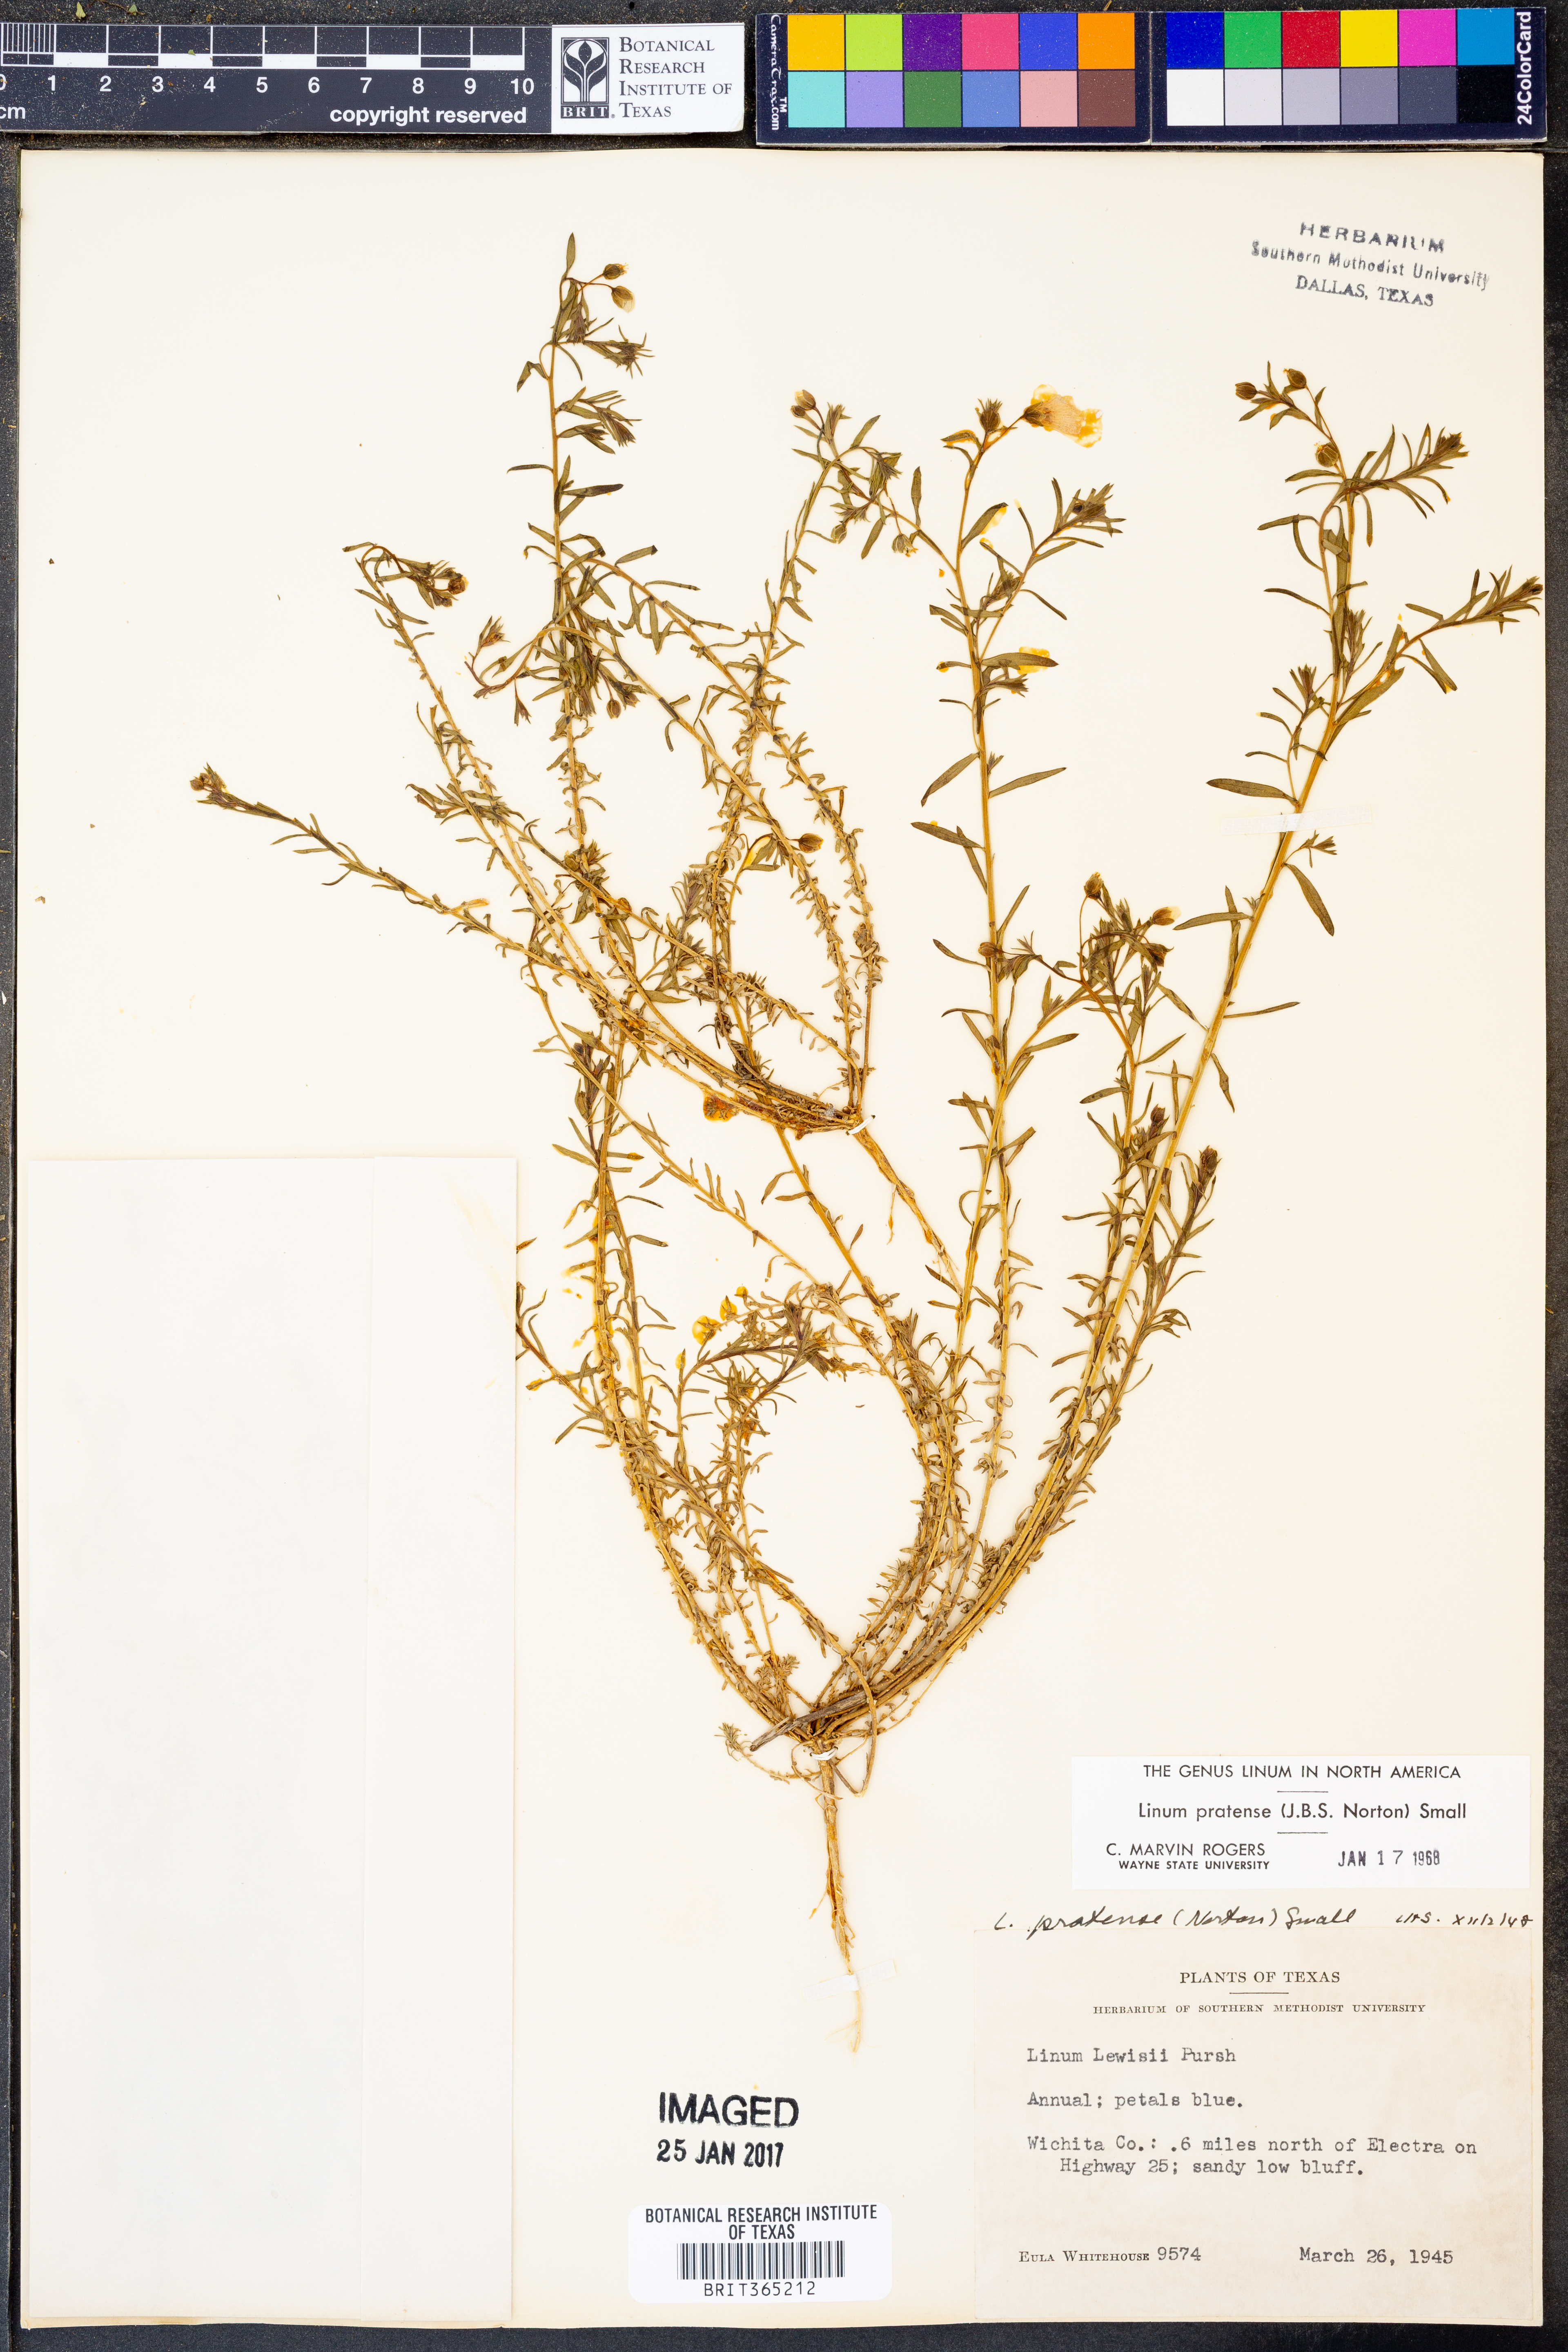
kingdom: Plantae
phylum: Tracheophyta
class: Magnoliopsida
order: Malpighiales
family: Linaceae
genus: Linum
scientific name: Linum pratense
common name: Norton's flax
